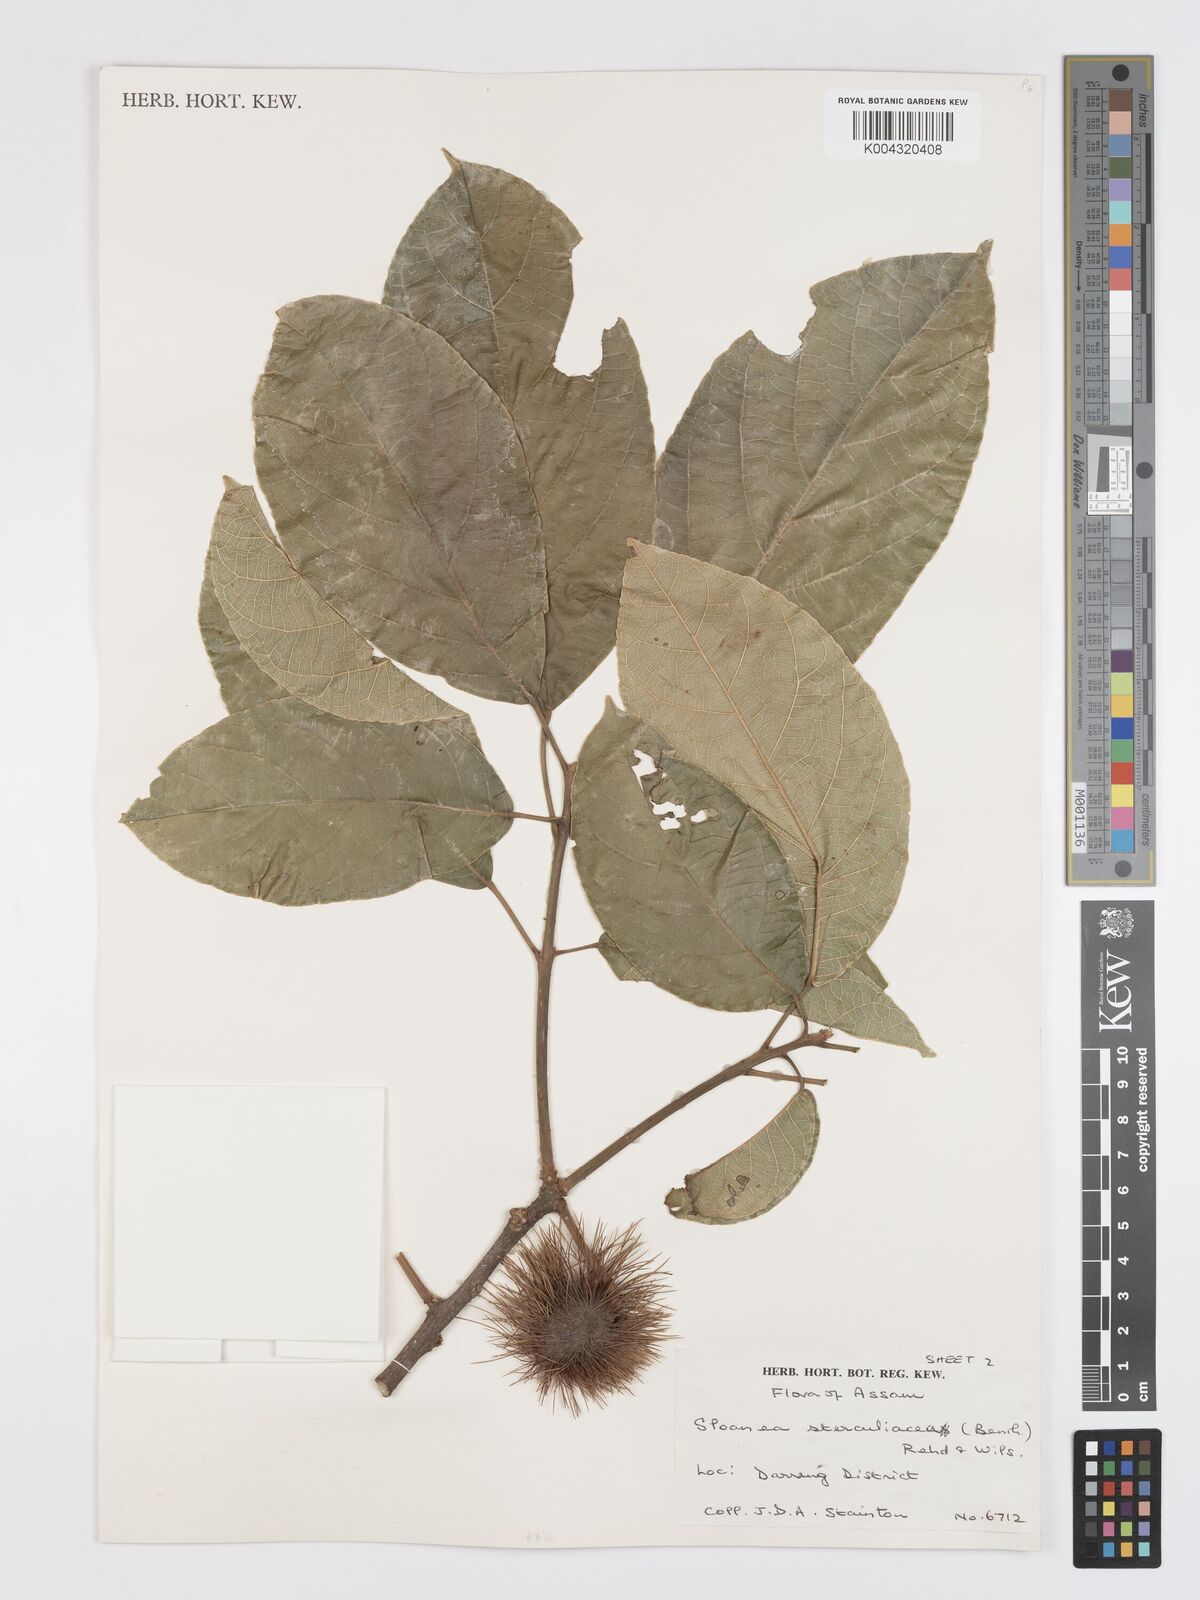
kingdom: Plantae
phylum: Tracheophyta
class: Magnoliopsida
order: Oxalidales
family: Elaeocarpaceae
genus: Sloanea
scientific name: Sloanea sterculiacea
